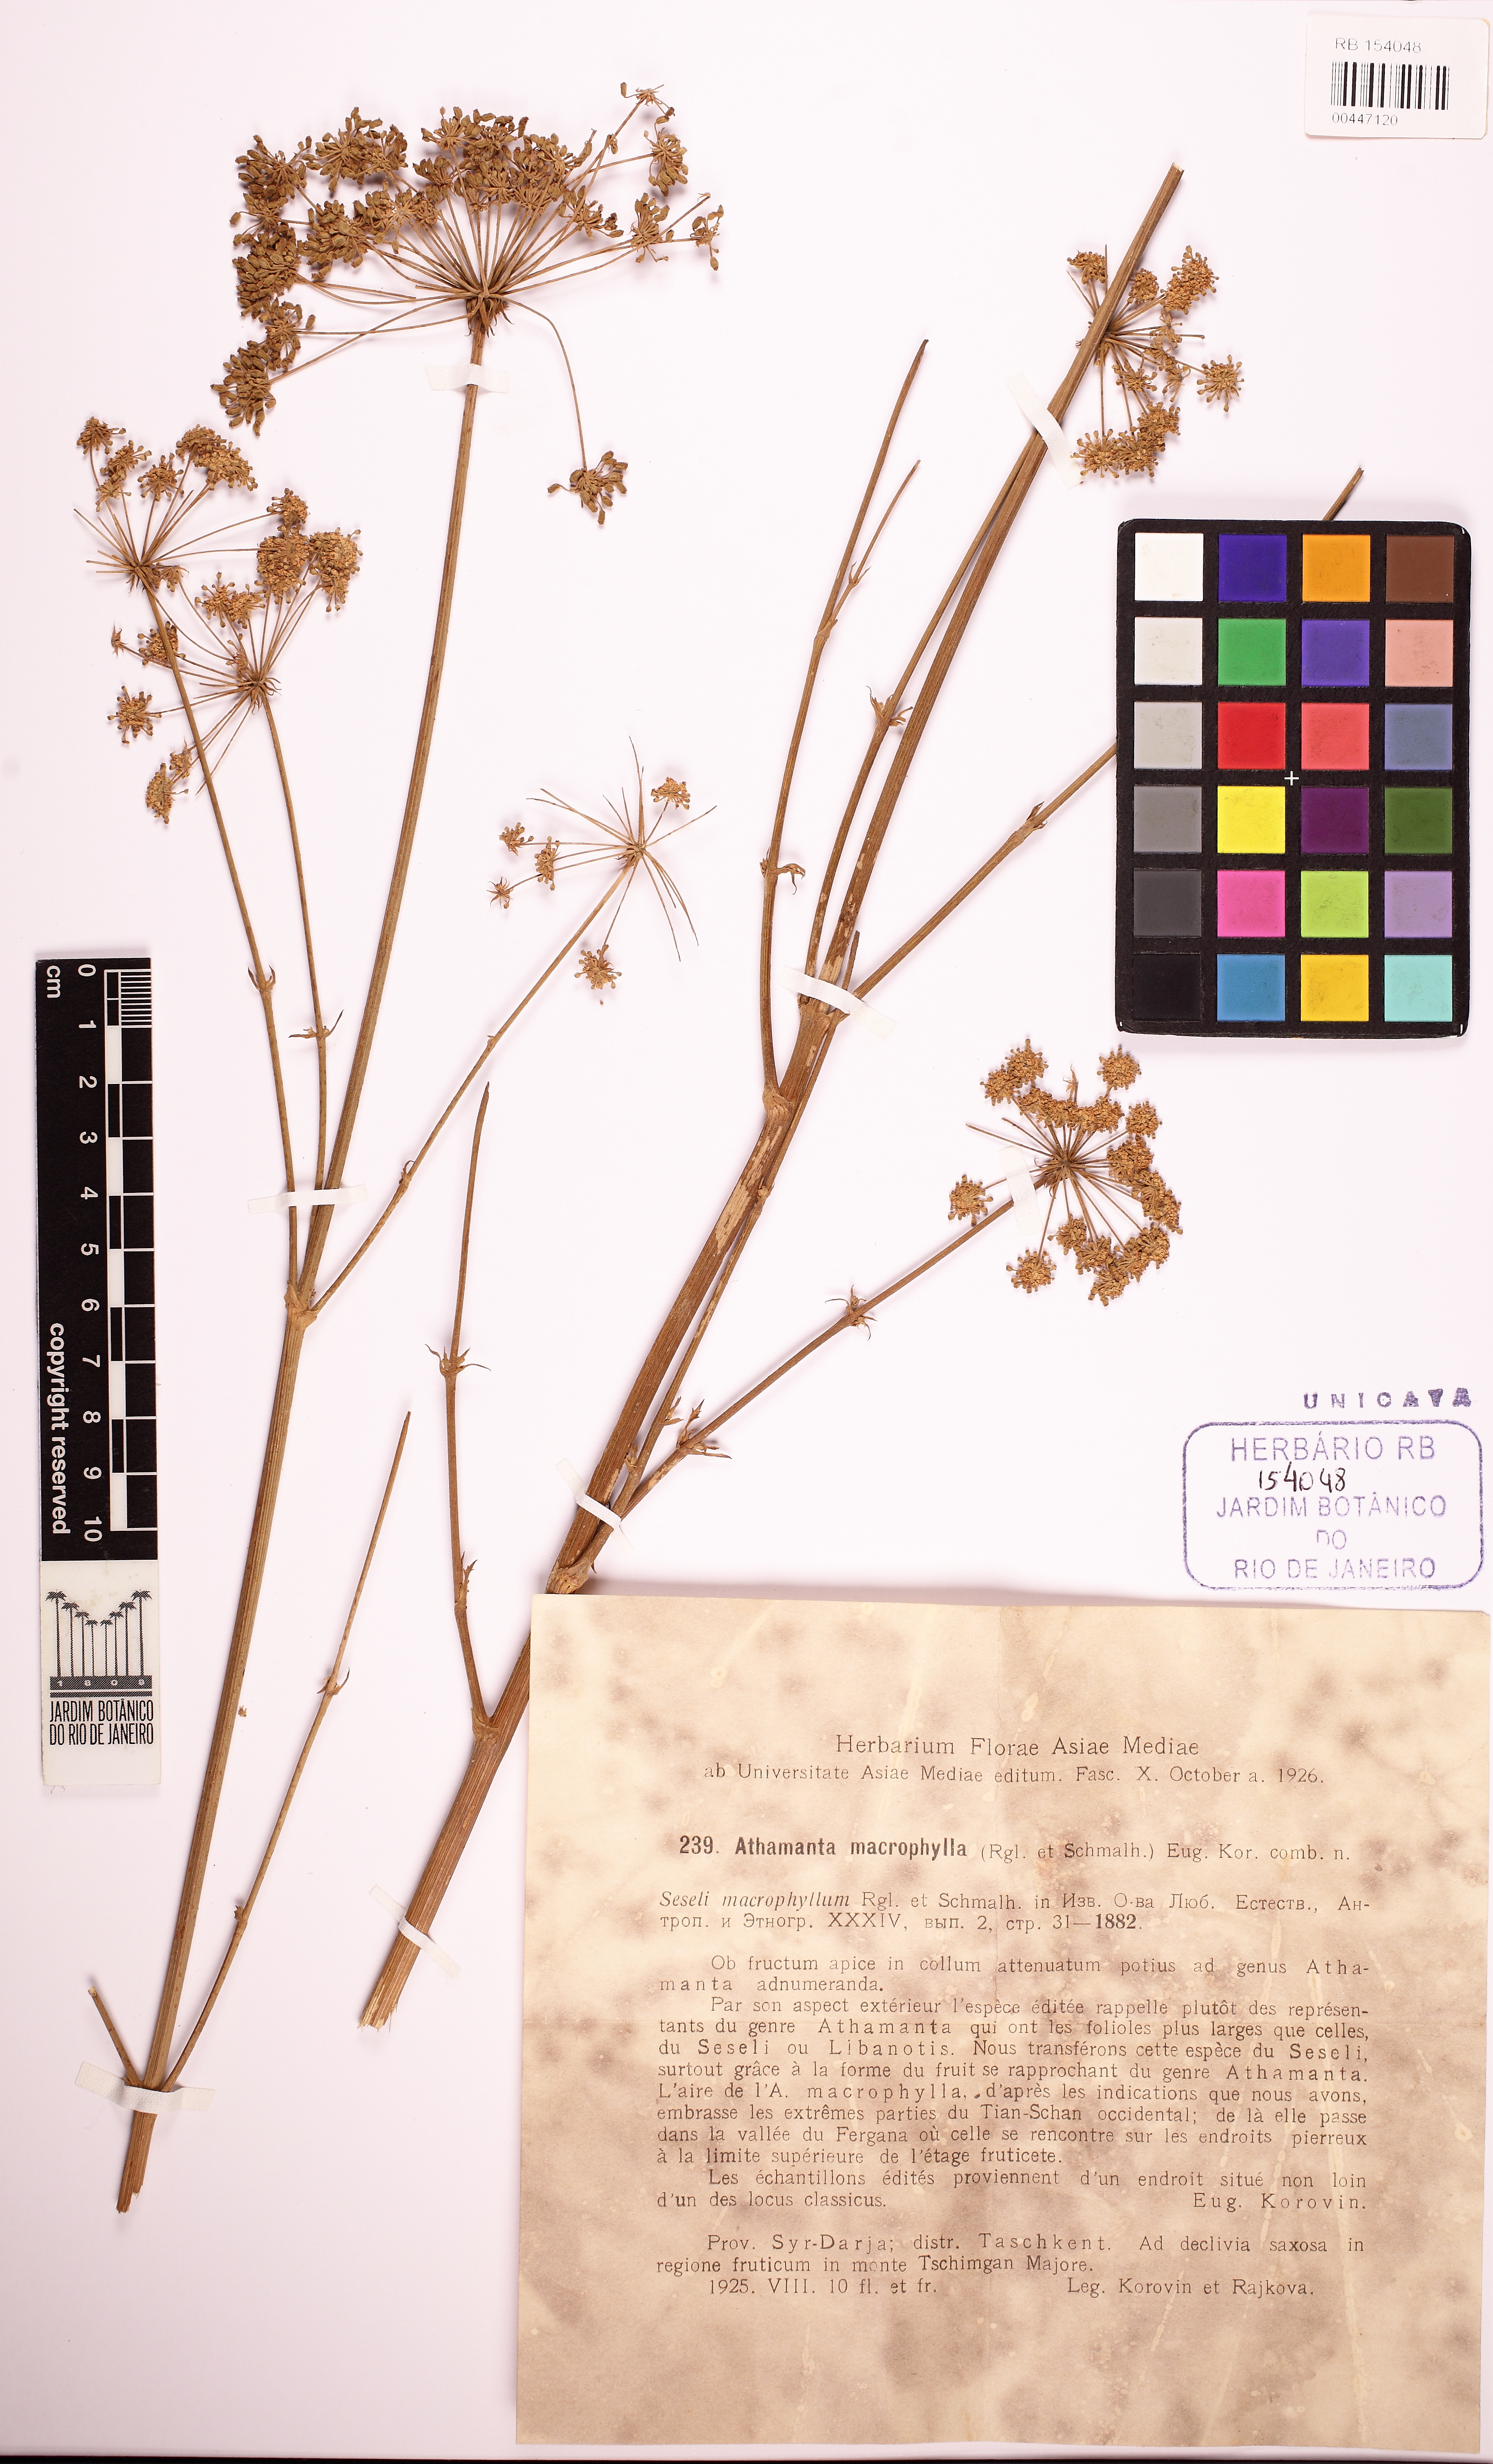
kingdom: Plantae
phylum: Tracheophyta
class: Magnoliopsida
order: Apiales
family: Apiaceae
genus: Mediasia
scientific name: Mediasia macrophylla
